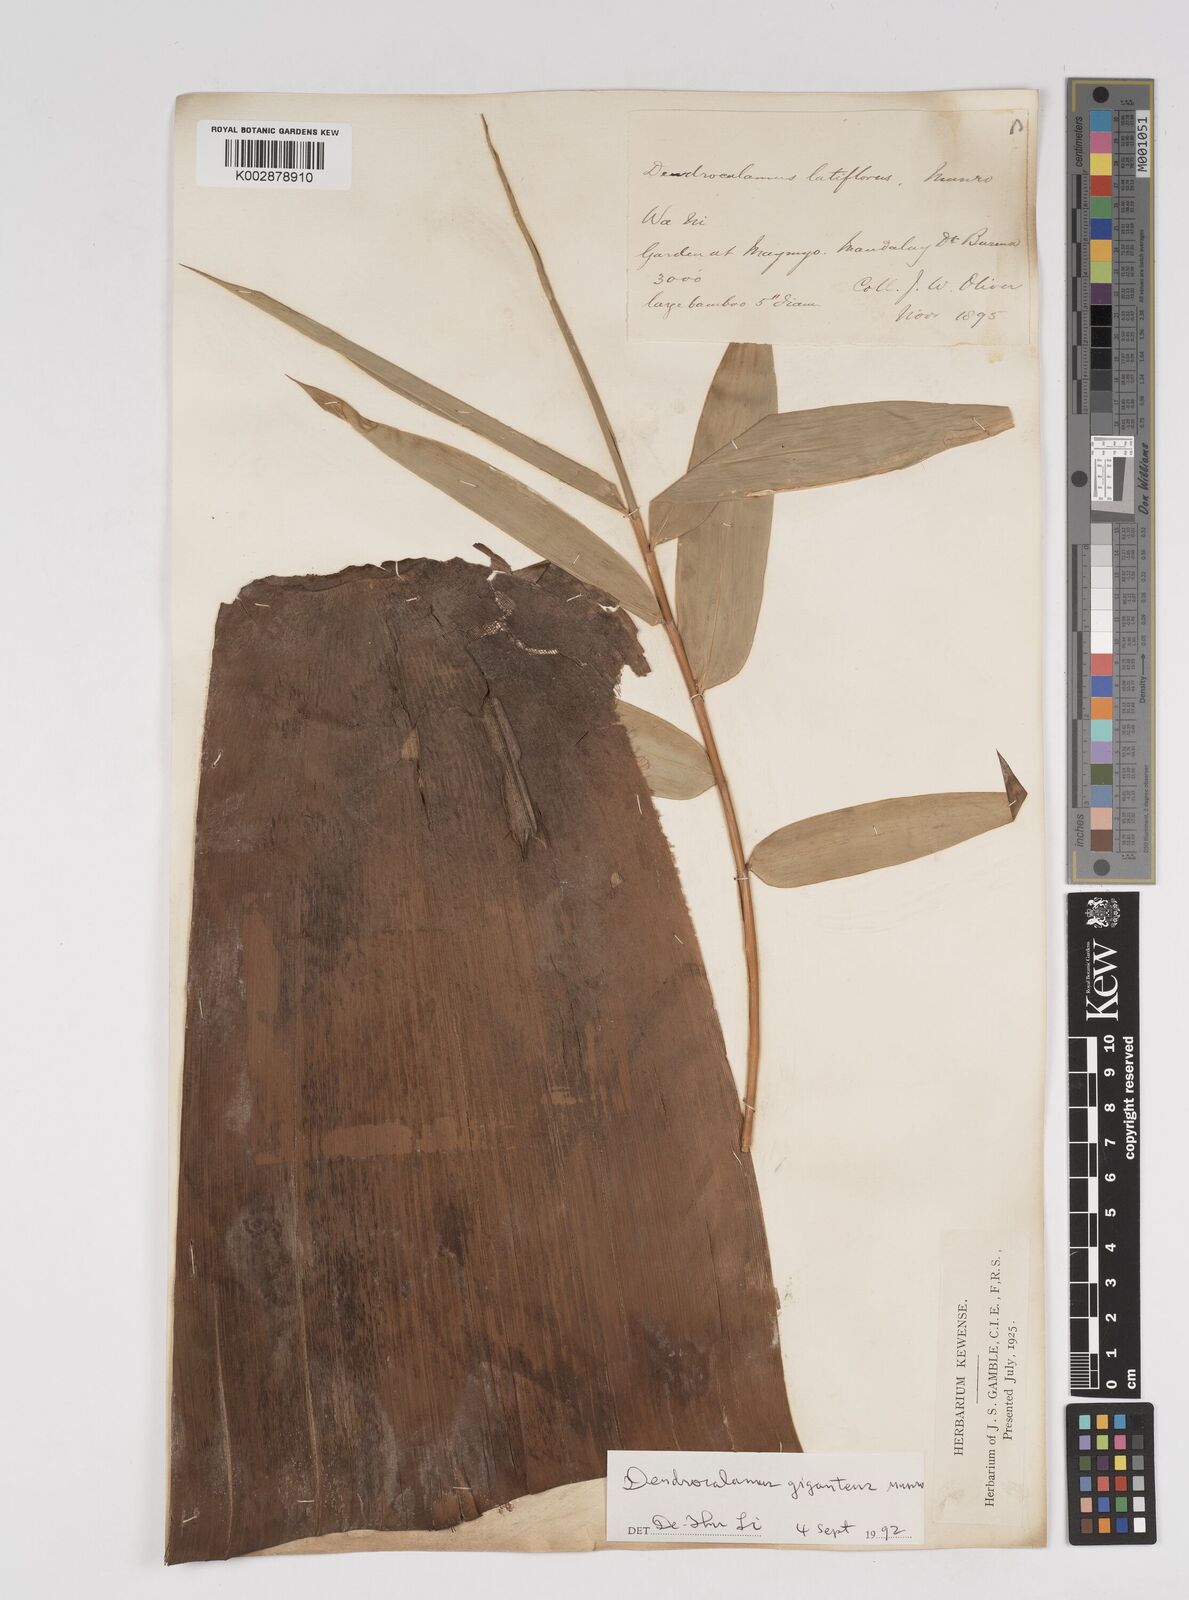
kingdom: Plantae
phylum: Tracheophyta
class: Liliopsida
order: Poales
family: Poaceae
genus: Dendrocalamus
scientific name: Dendrocalamus latiflorus
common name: Giant bamboo
